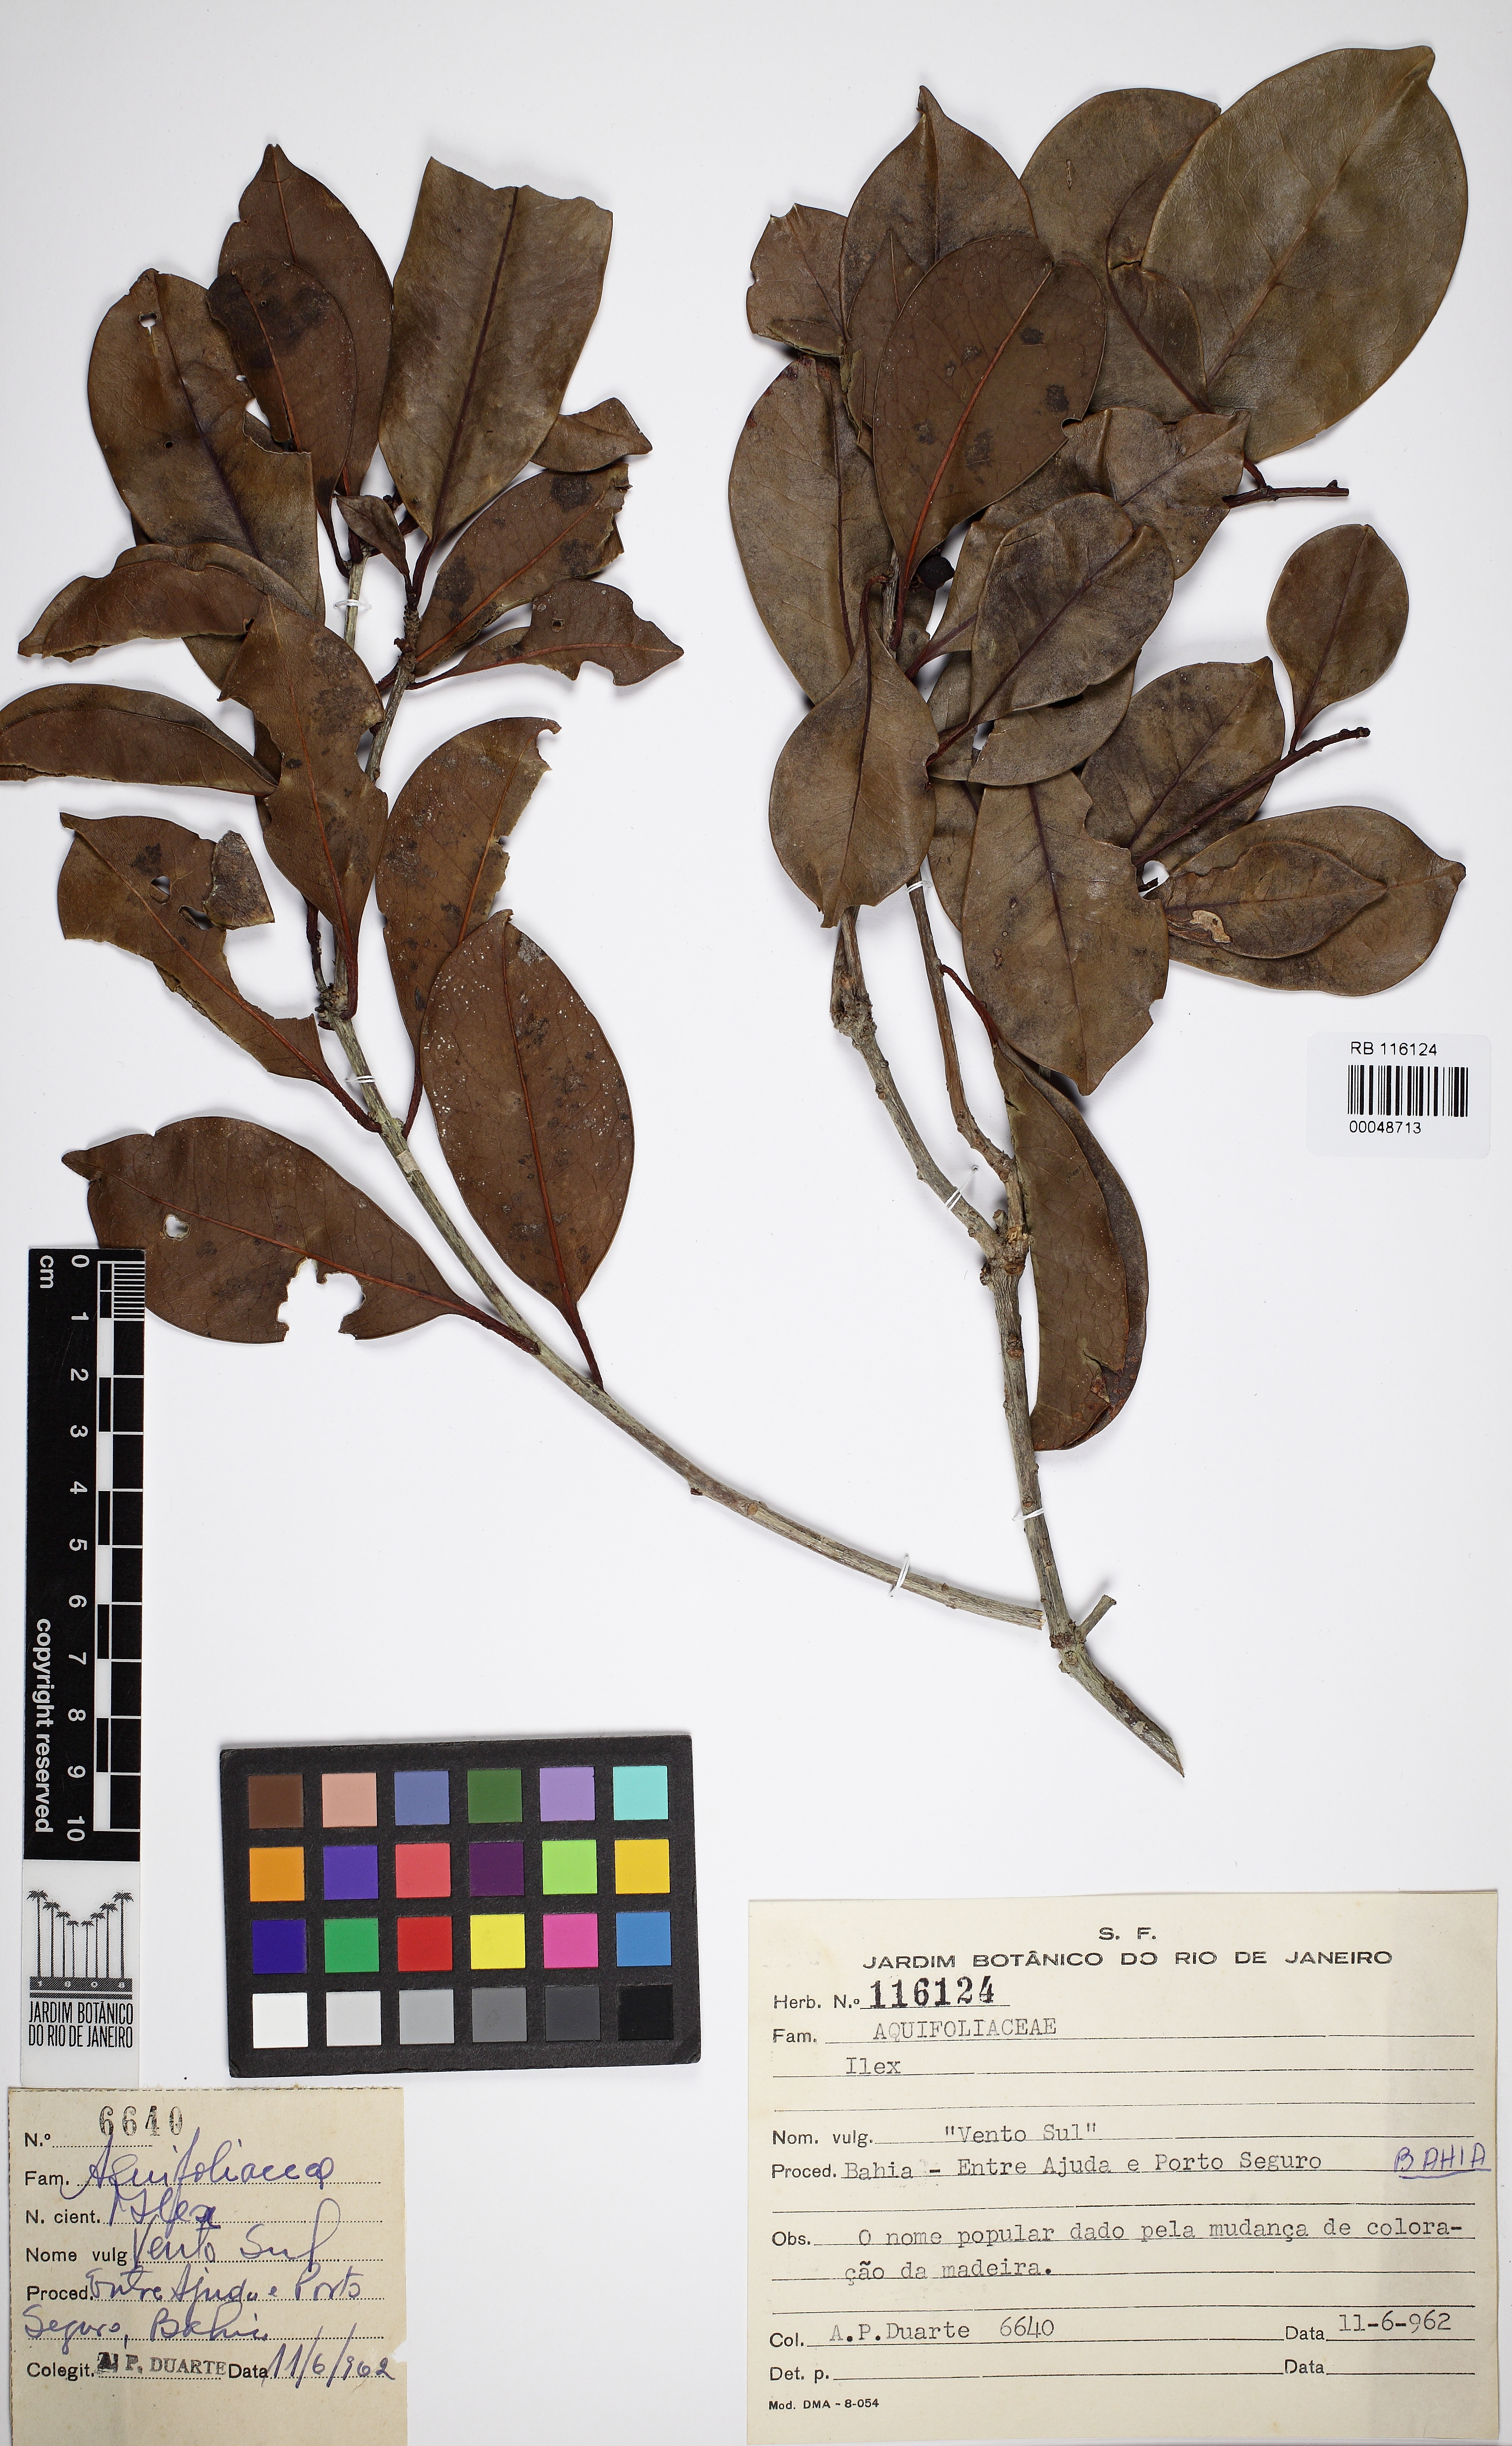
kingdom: Plantae
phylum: Tracheophyta
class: Magnoliopsida
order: Aquifoliales
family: Aquifoliaceae
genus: Ilex
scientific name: Ilex
